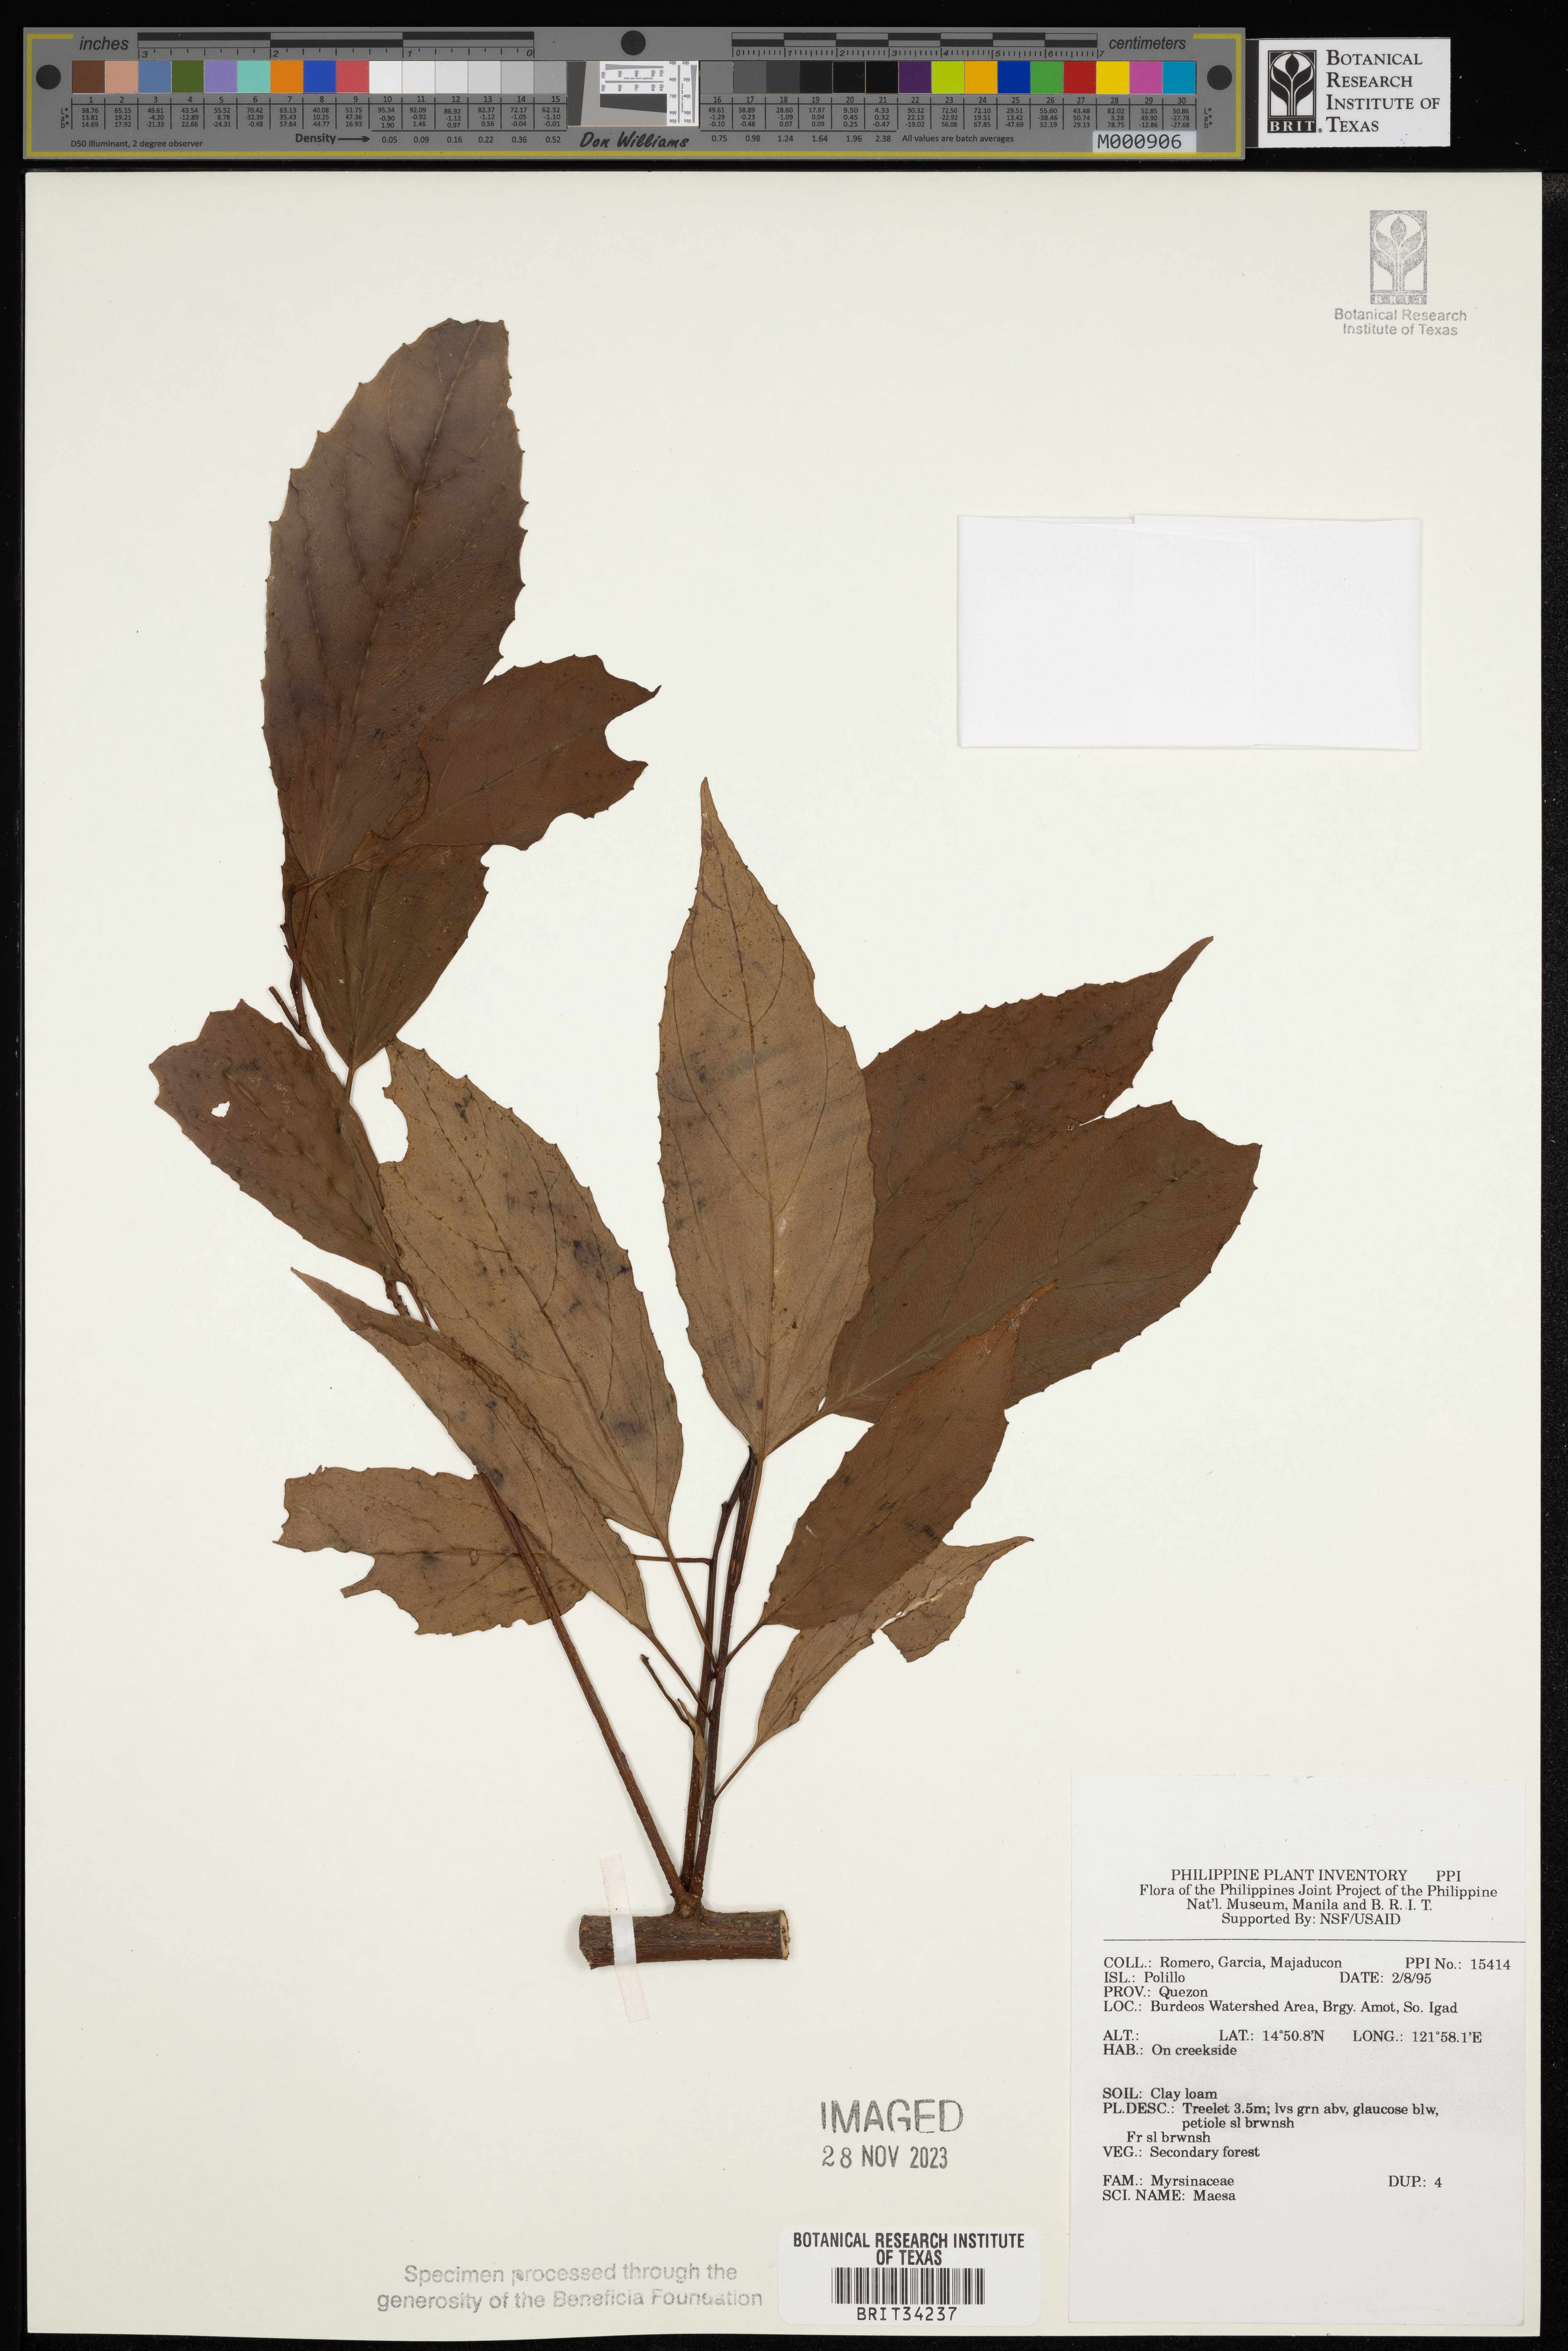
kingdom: Plantae
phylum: Tracheophyta
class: Magnoliopsida
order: Ericales
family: Primulaceae
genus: Maesa
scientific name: Maesa
